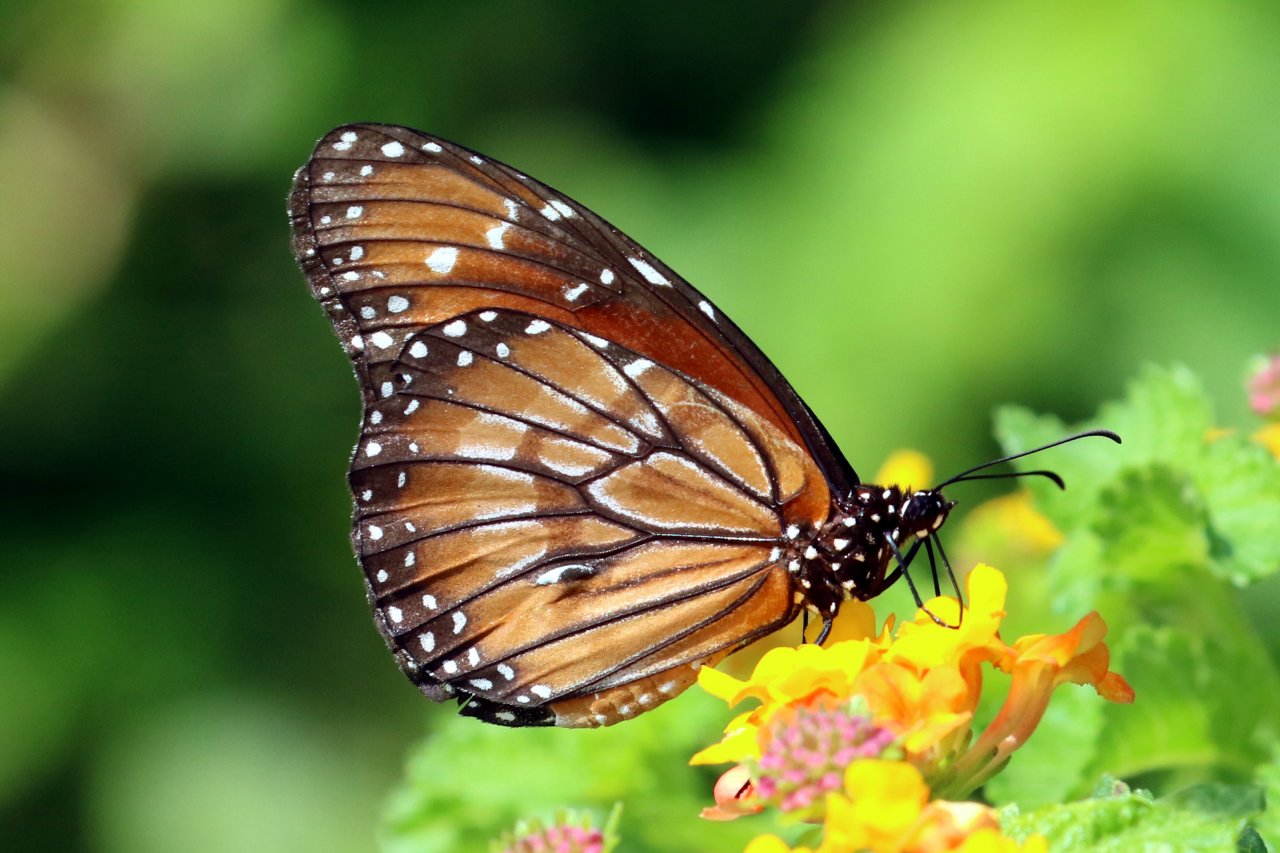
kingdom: Animalia
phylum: Arthropoda
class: Insecta
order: Lepidoptera
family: Nymphalidae
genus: Danaus
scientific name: Danaus eresimus
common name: Soldier
